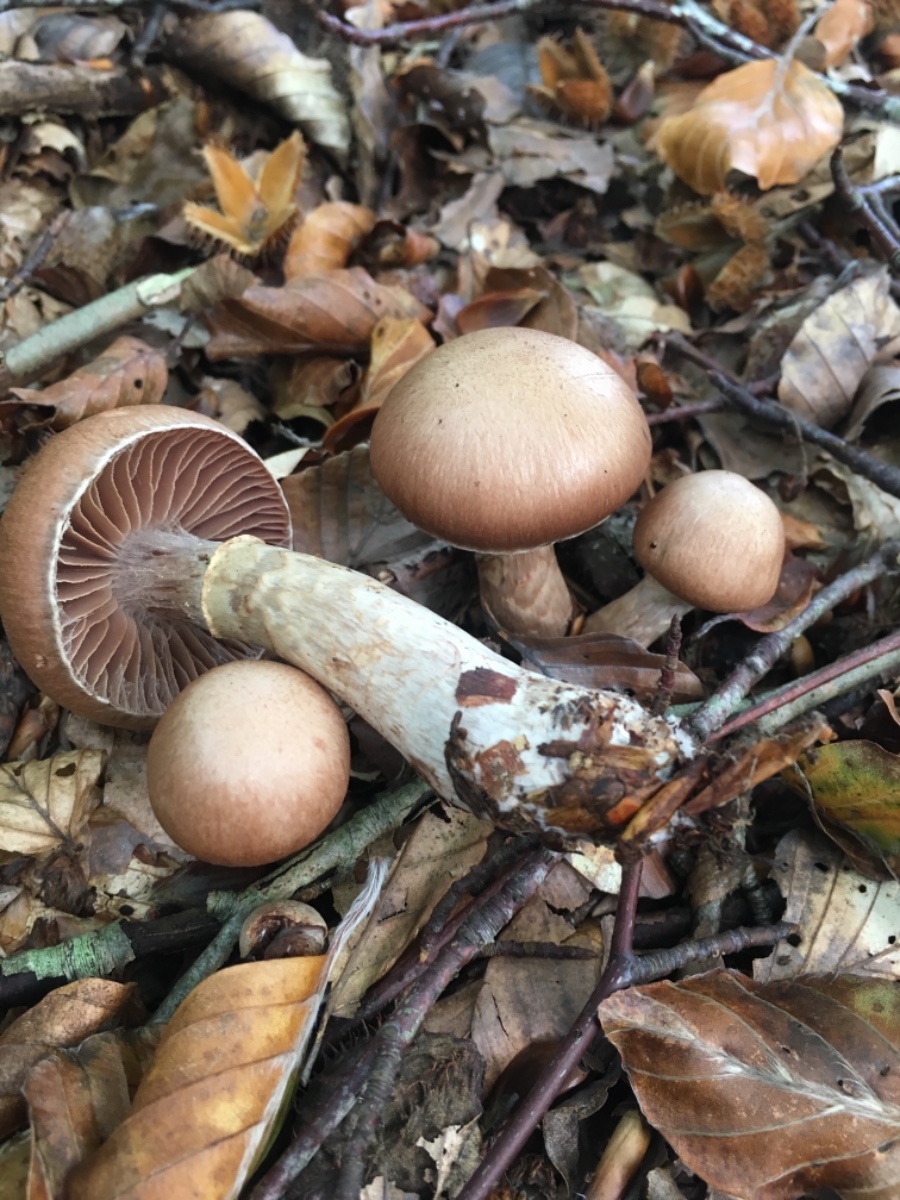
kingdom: Fungi
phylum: Basidiomycota
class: Agaricomycetes
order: Agaricales
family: Cortinariaceae
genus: Cortinarius
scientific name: Cortinarius torvus
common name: champignonagtig slørhat
